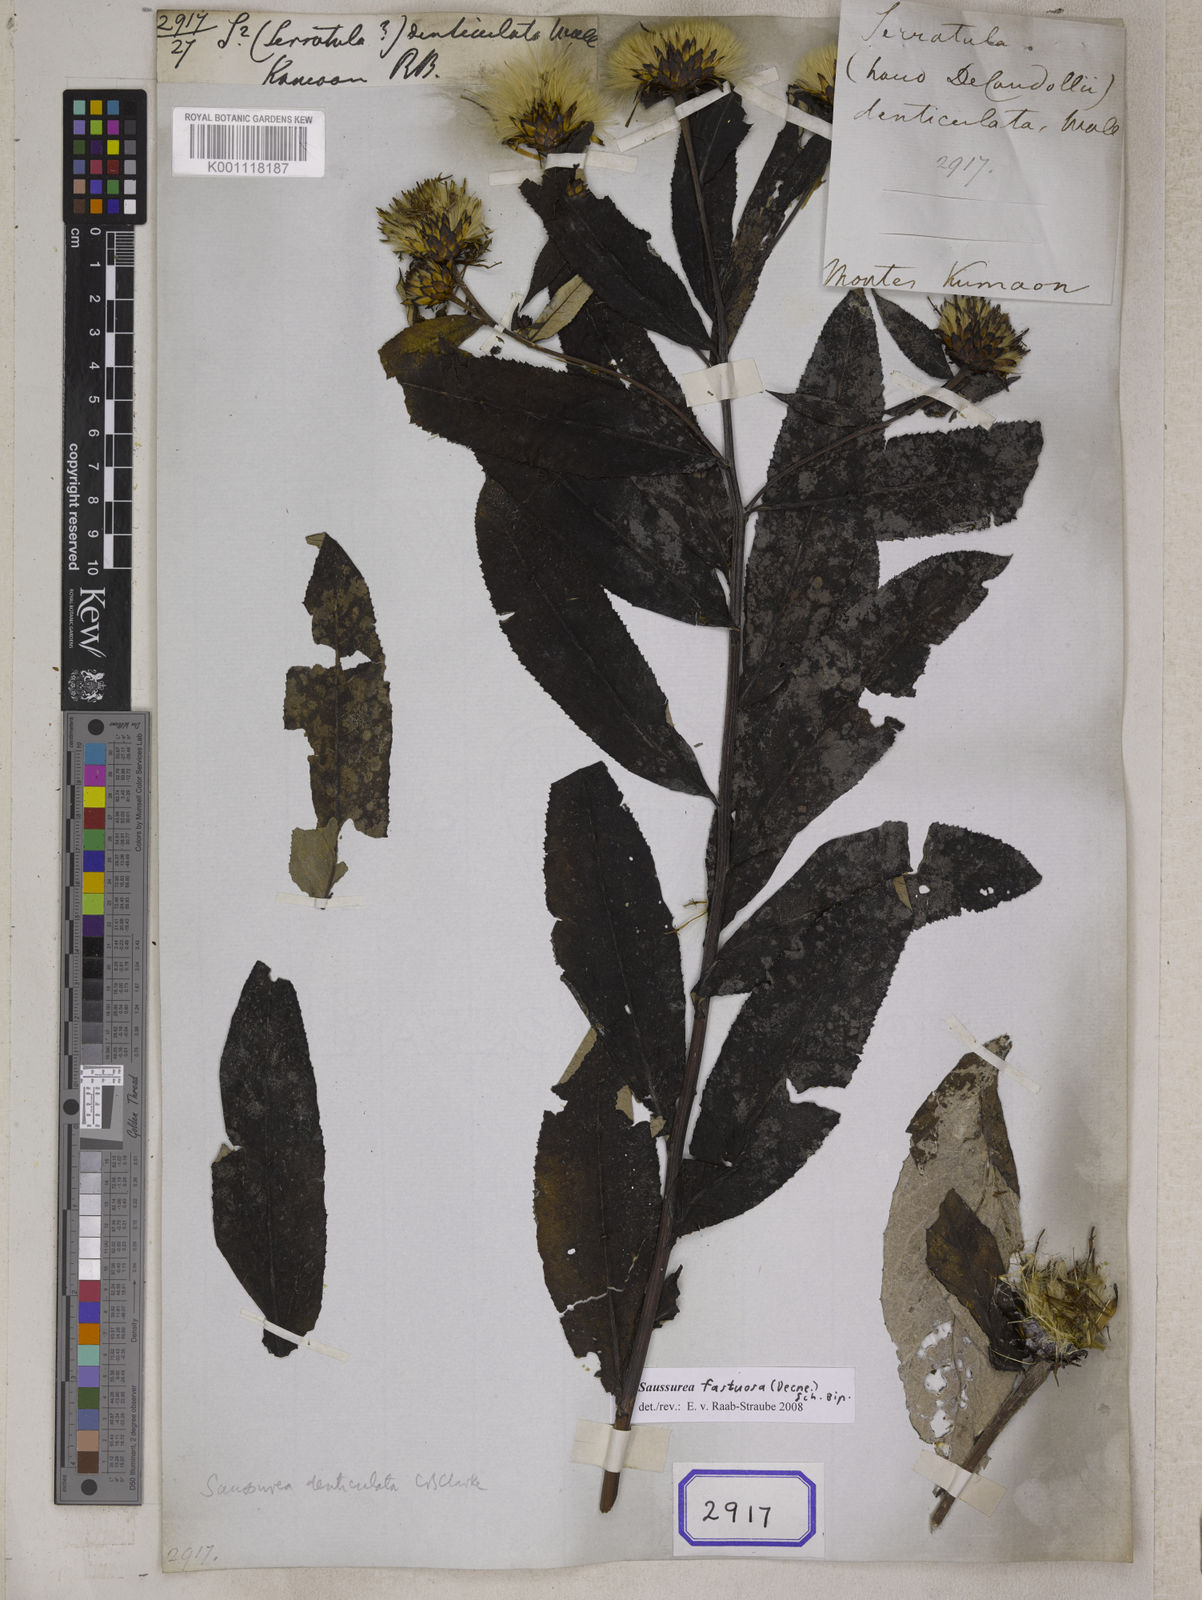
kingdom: Plantae
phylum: Tracheophyta
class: Magnoliopsida
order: Asterales
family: Asteraceae
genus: Saussurea
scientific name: Saussurea
